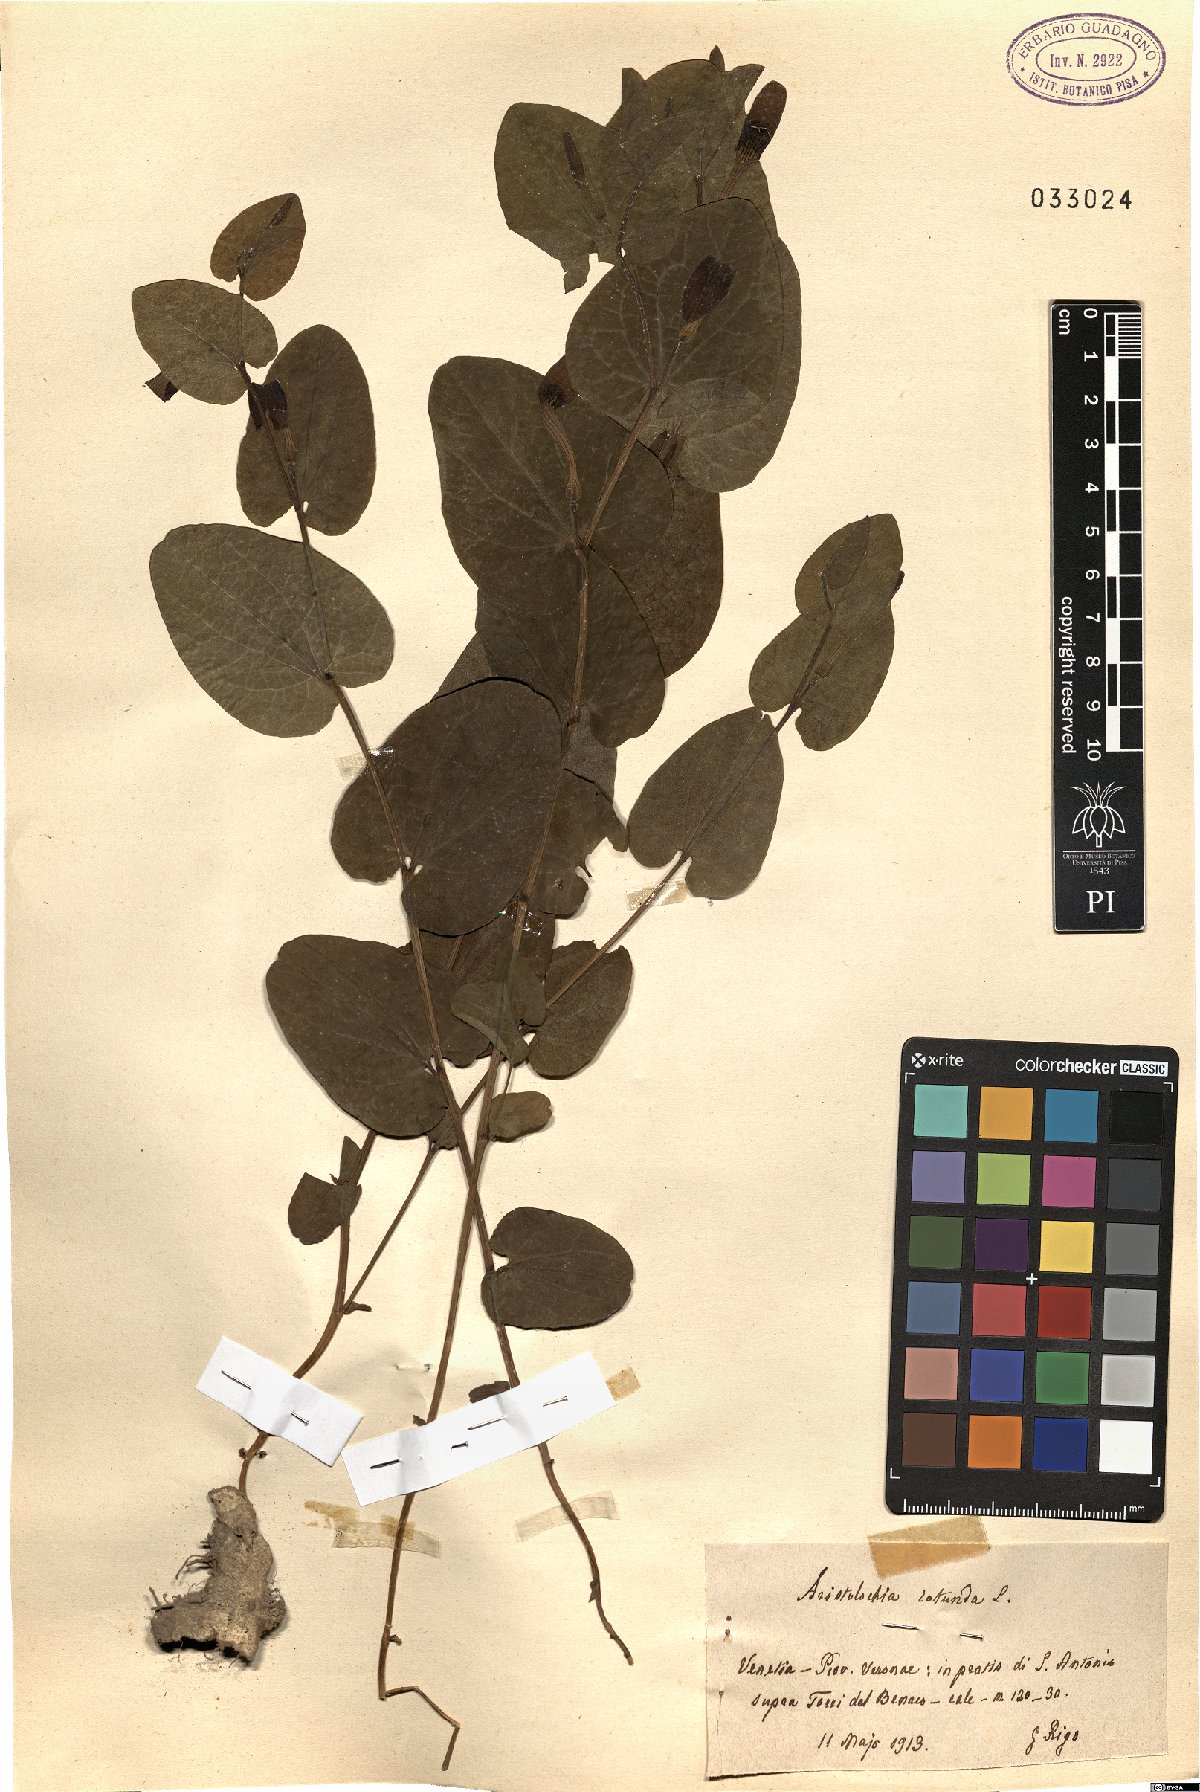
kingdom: Plantae
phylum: Tracheophyta
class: Magnoliopsida
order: Piperales
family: Aristolochiaceae
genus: Aristolochia
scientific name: Aristolochia rotunda
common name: Smearwort
